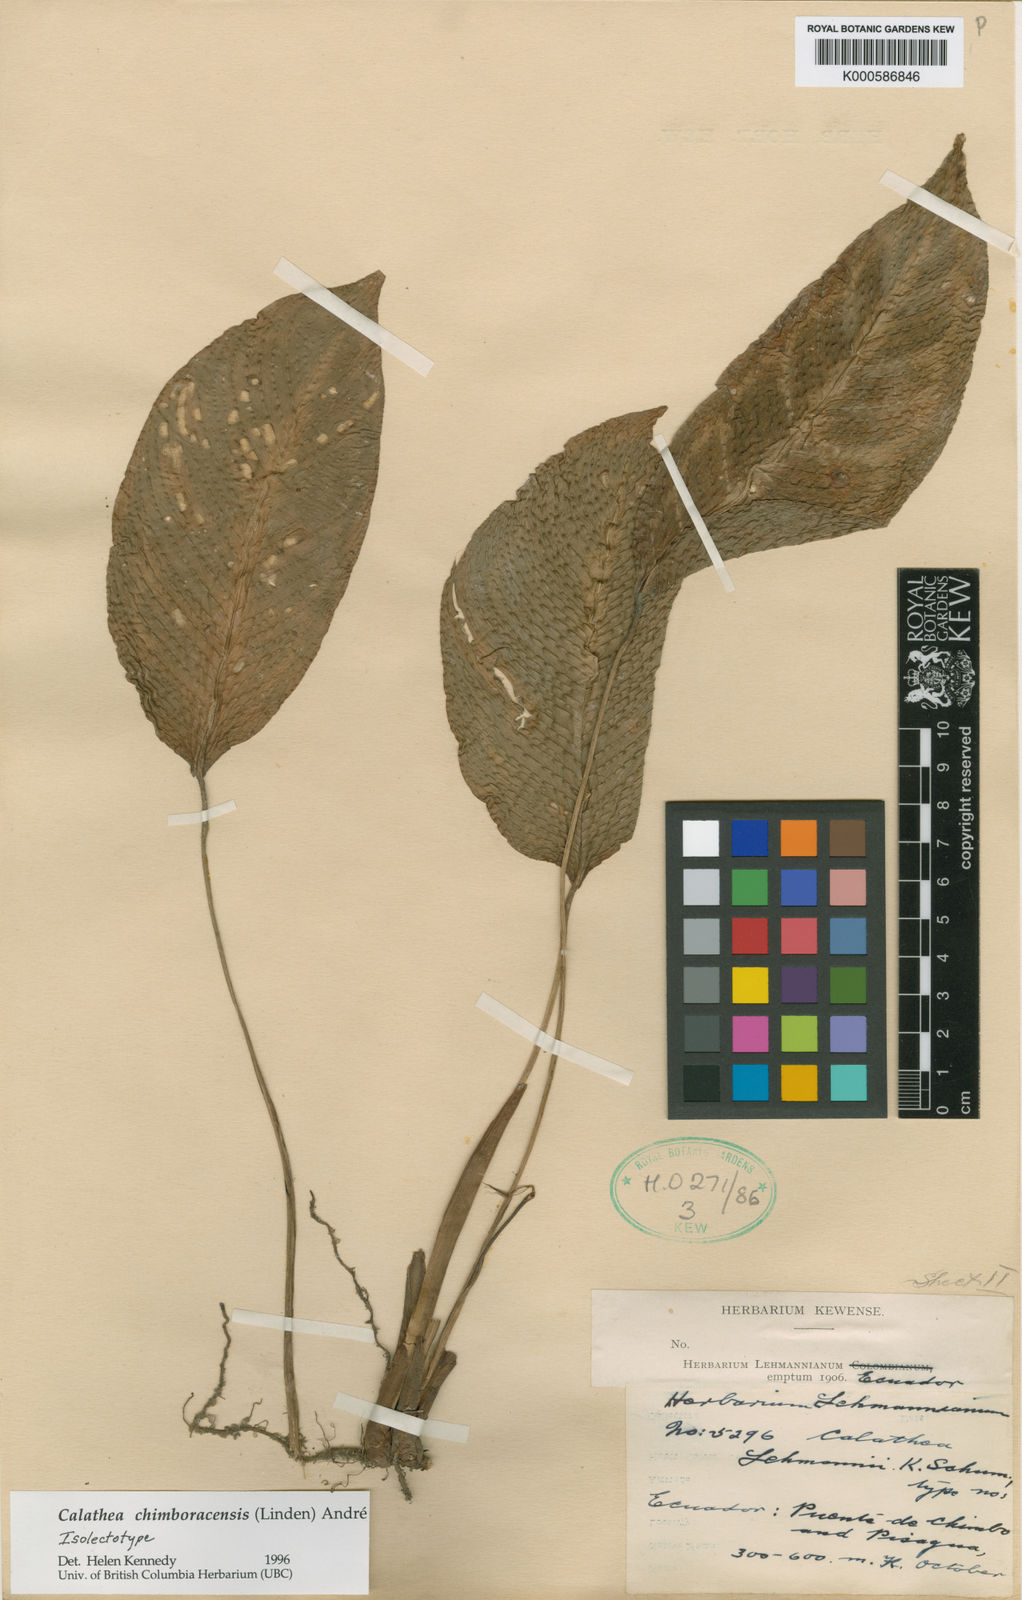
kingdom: Plantae
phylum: Tracheophyta
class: Liliopsida
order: Zingiberales
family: Marantaceae
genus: Goeppertia
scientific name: Goeppertia chimboracensis
